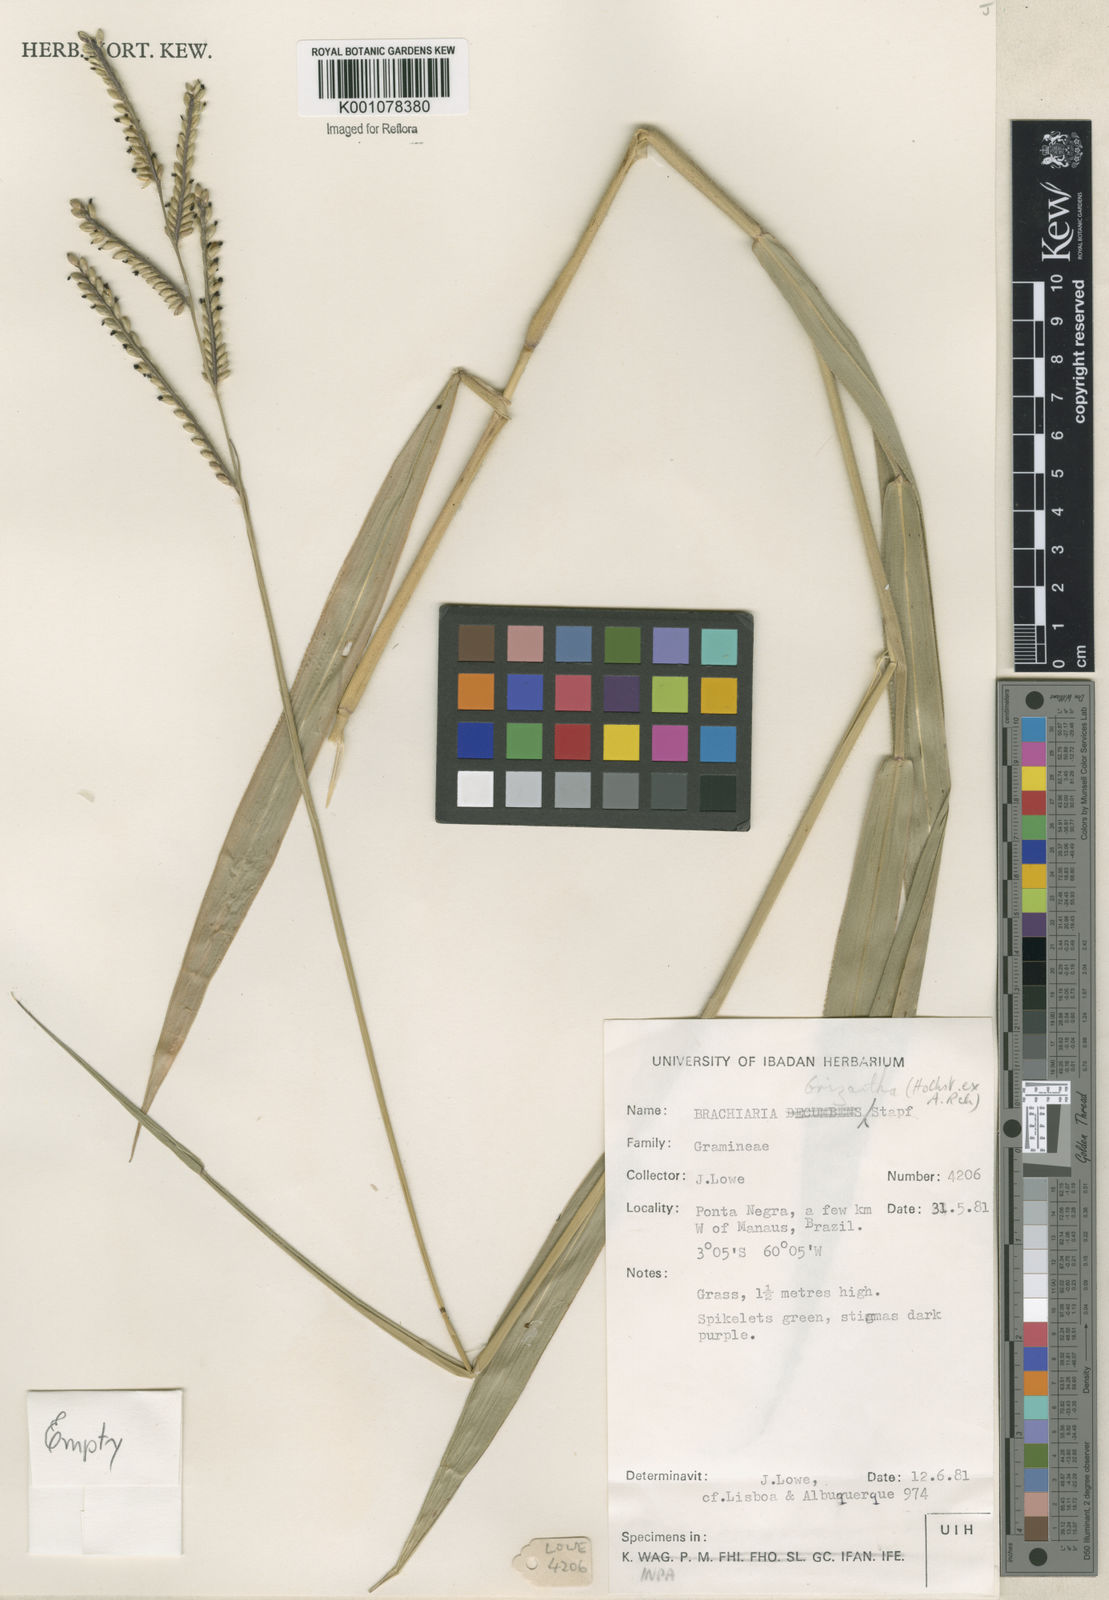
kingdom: Plantae
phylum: Tracheophyta
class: Liliopsida
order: Poales
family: Poaceae
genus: Urochloa
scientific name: Urochloa brizantha
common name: Palisade signalgrass
